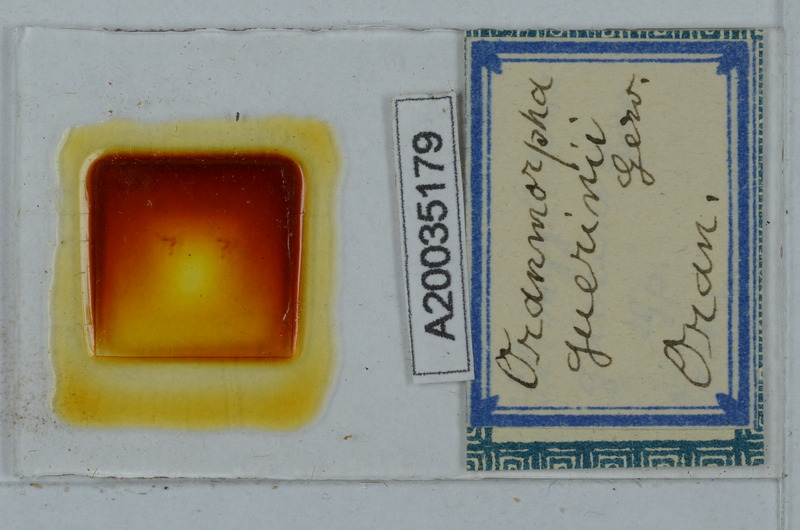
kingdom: Animalia
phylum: Arthropoda
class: Diplopoda
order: Polydesmida
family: Paradoxosomatidae
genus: Oranmorpha
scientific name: Oranmorpha guerinii
